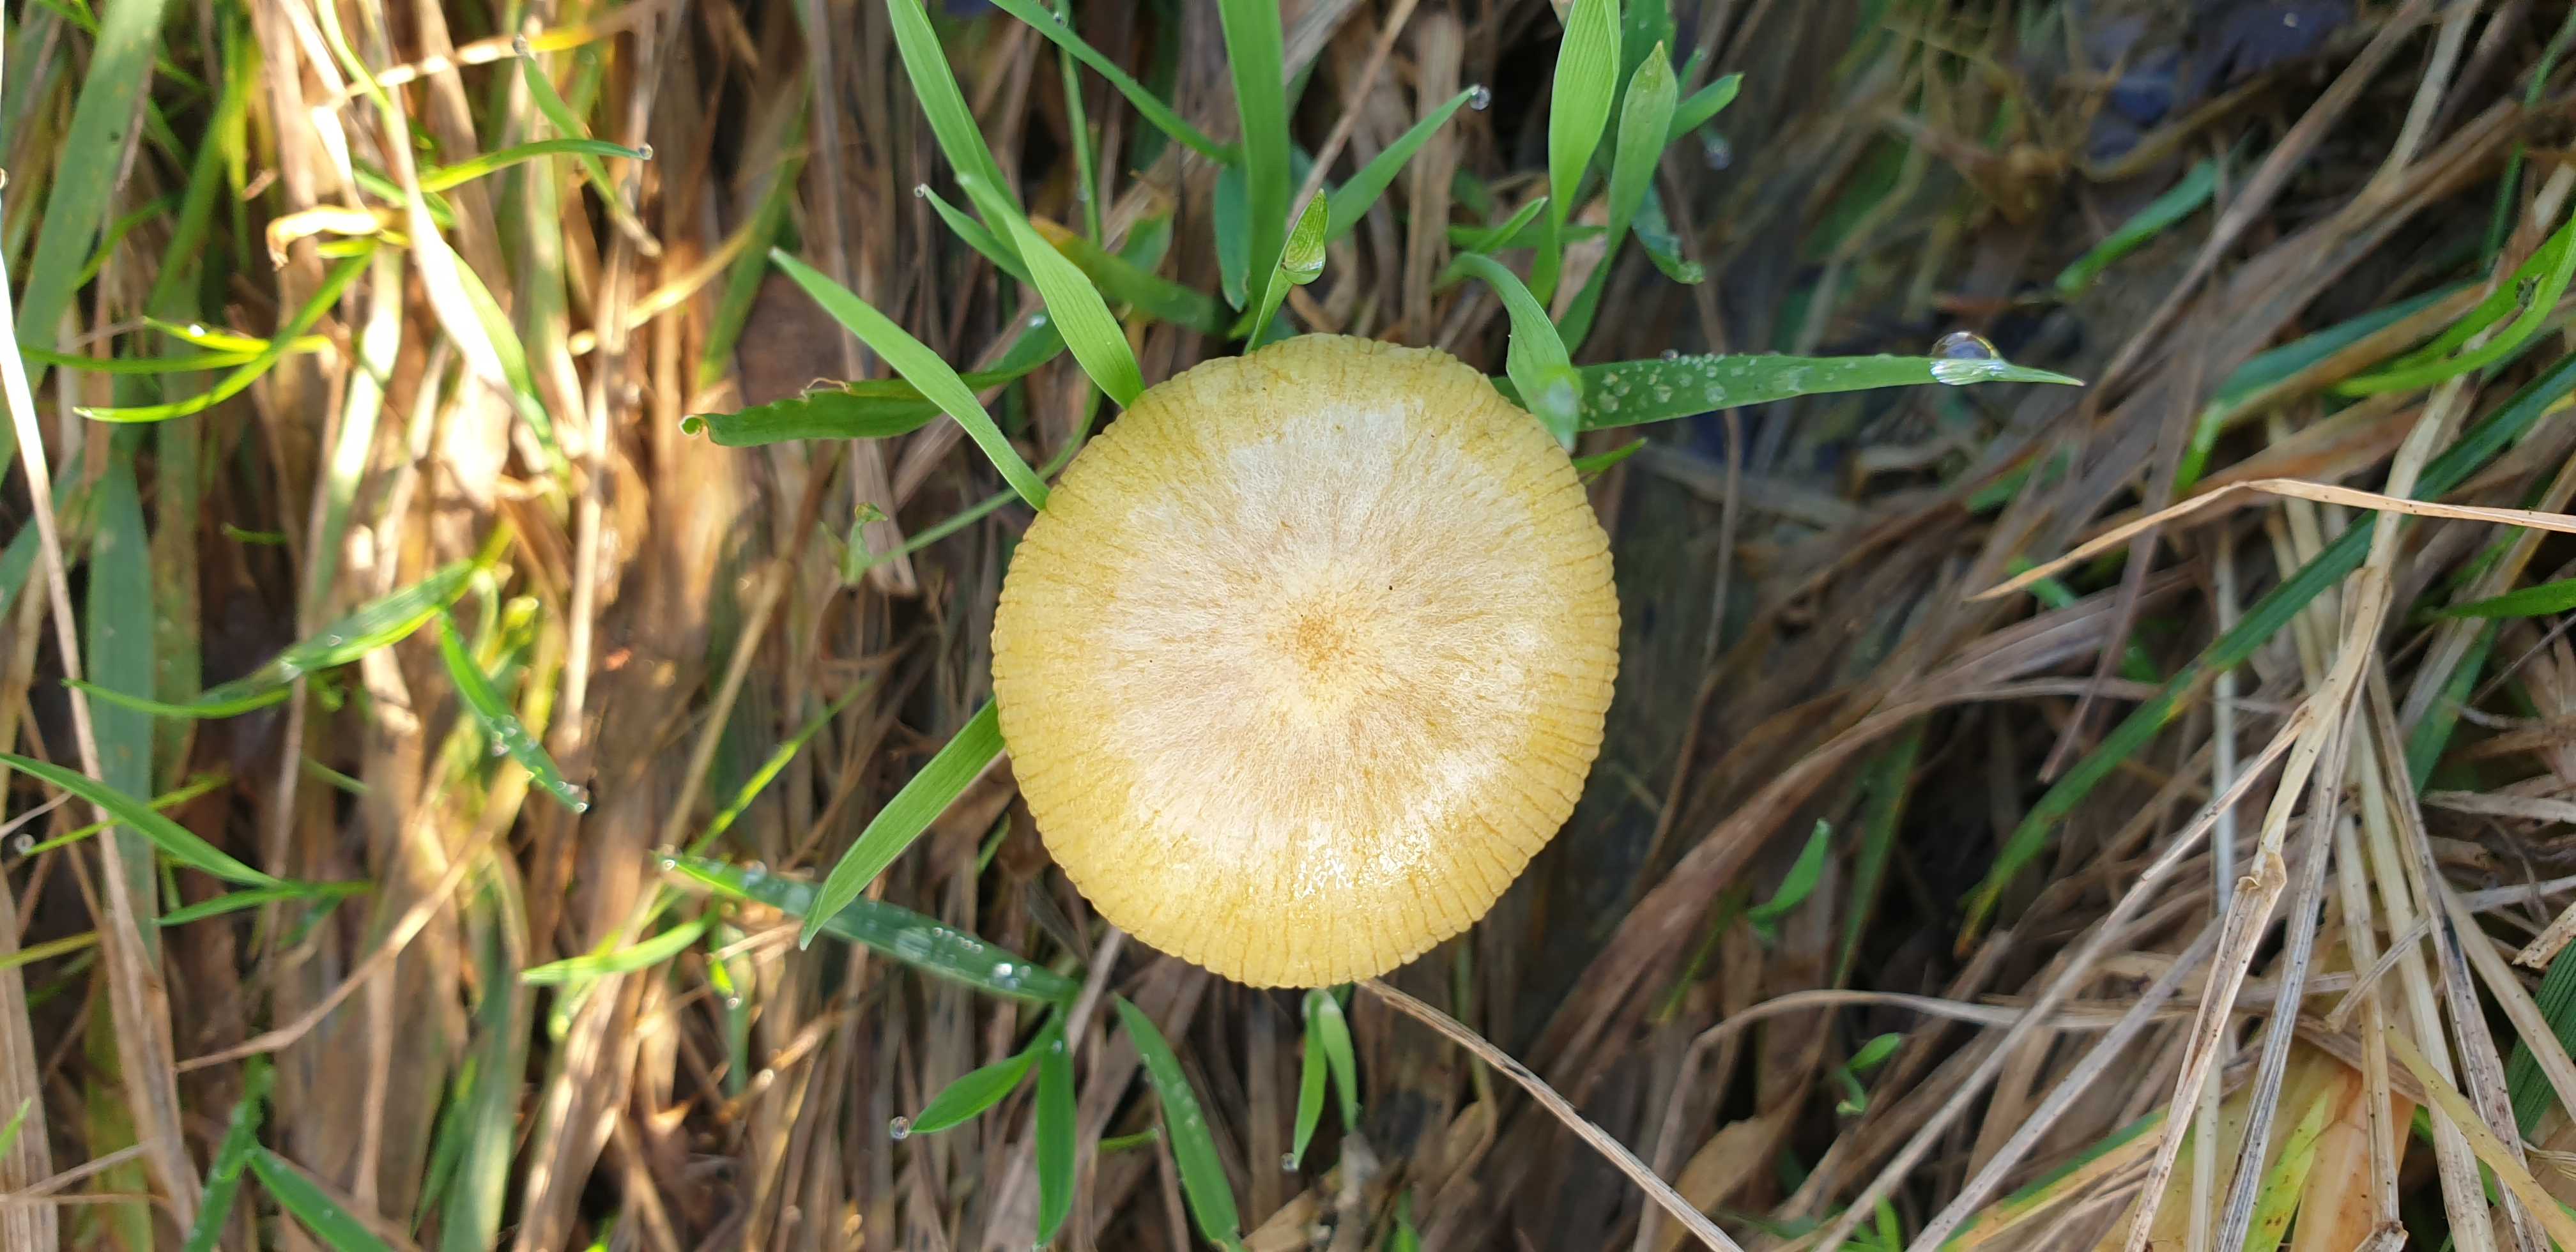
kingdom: Fungi
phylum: Basidiomycota
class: Agaricomycetes
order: Agaricales
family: Bolbitiaceae
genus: Bolbitius
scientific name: Bolbitius titubans
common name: almindelig gulhat
